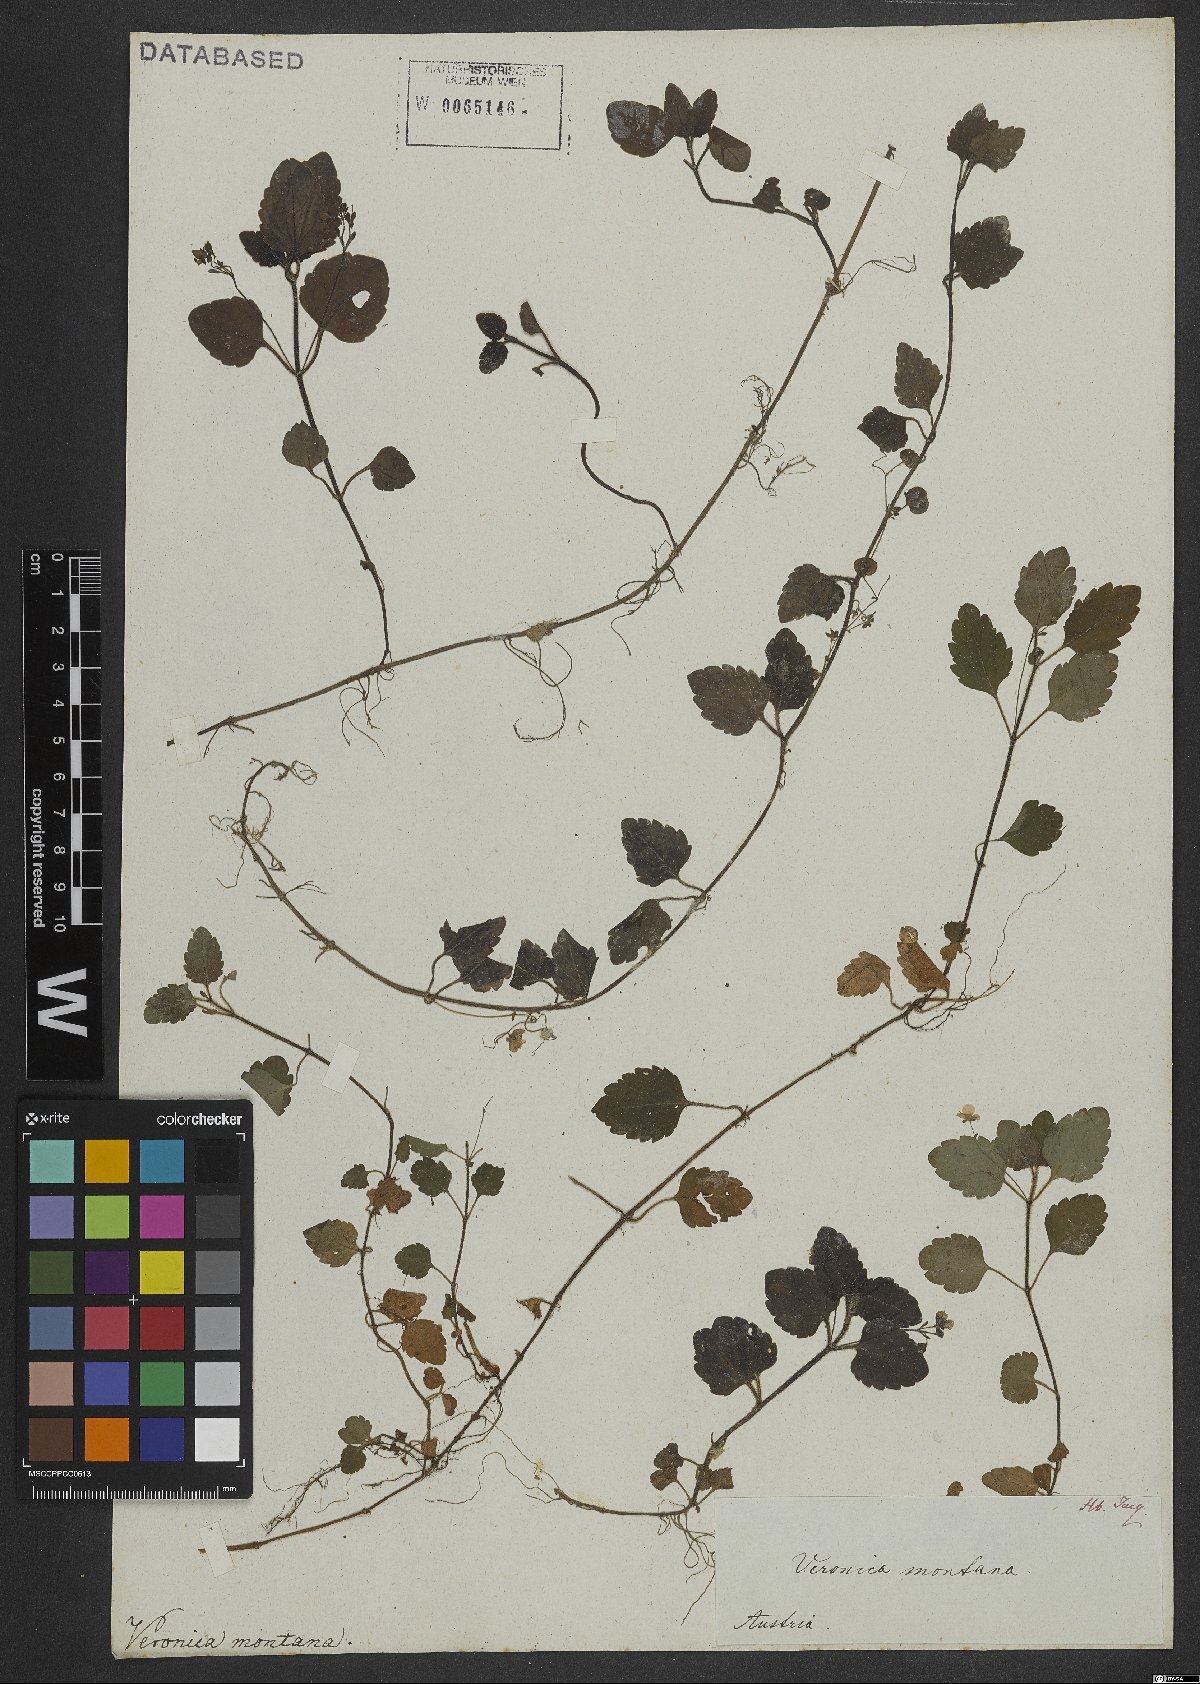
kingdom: Plantae
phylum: Tracheophyta
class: Magnoliopsida
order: Lamiales
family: Plantaginaceae
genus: Veronica
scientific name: Veronica montana
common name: Wood speedwell
